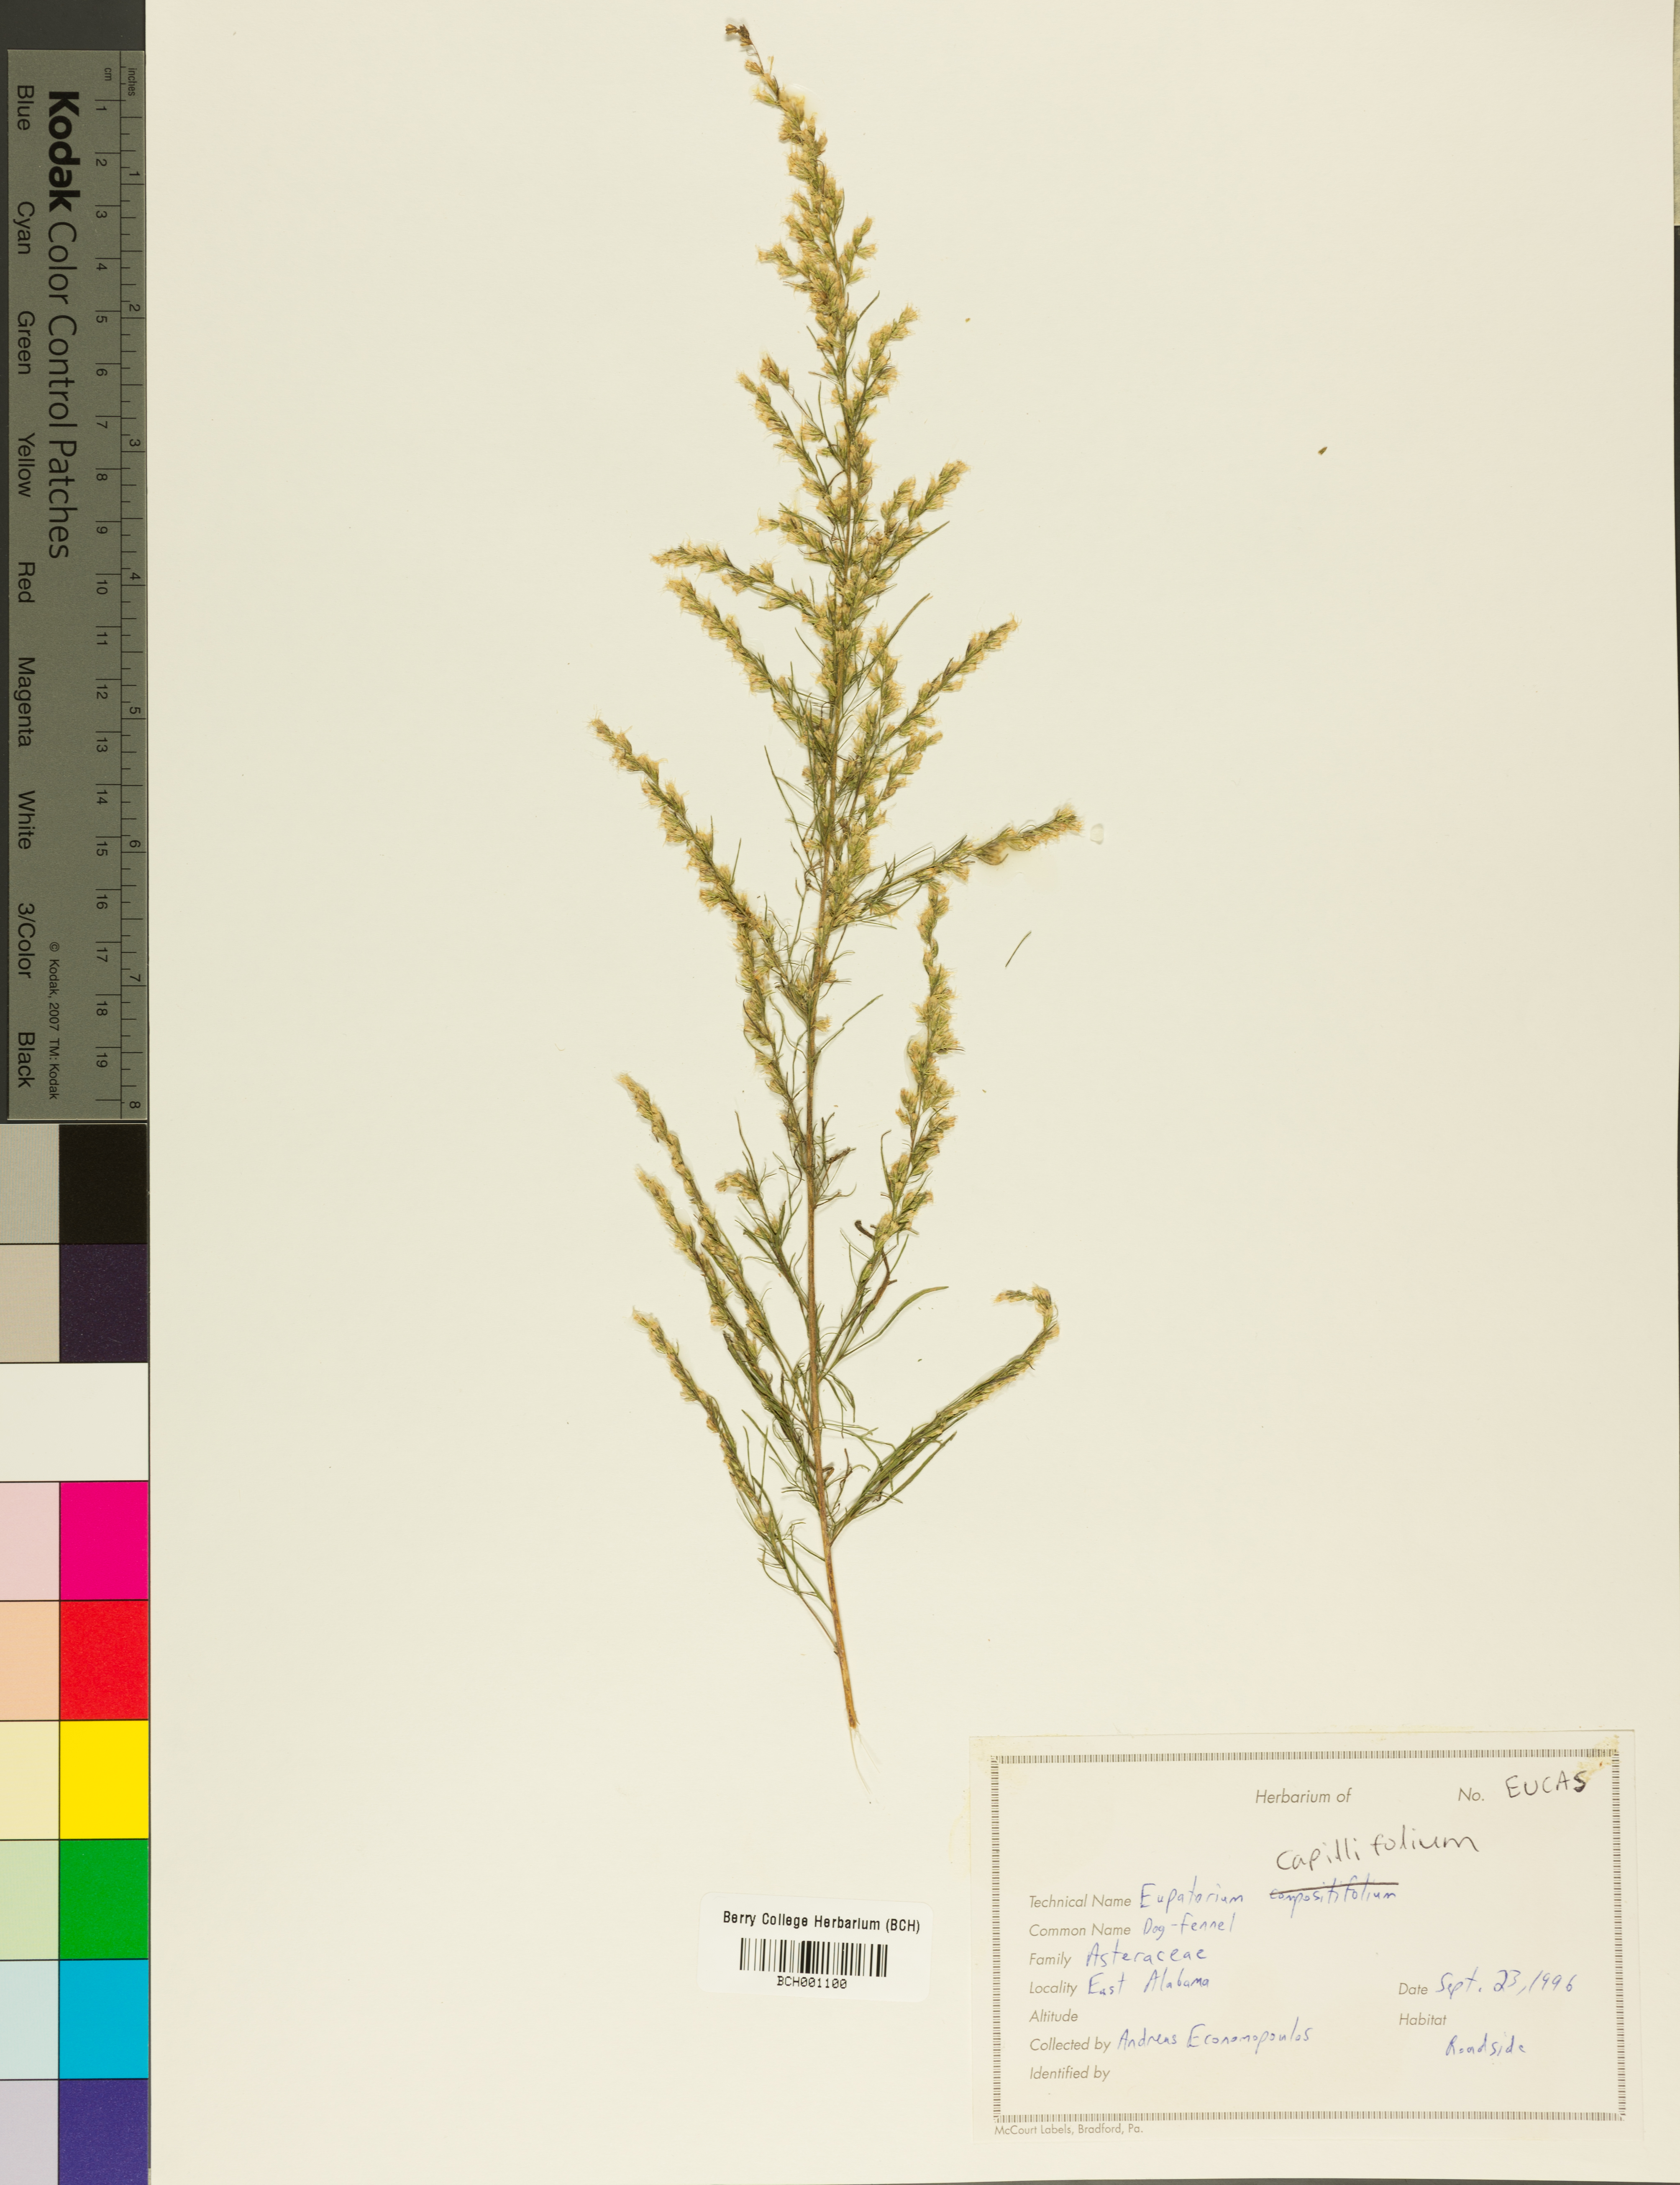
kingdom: Plantae
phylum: Tracheophyta
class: Magnoliopsida
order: Asterales
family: Asteraceae
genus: Eupatorium
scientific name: Eupatorium capillifolium
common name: Dog-fennel
